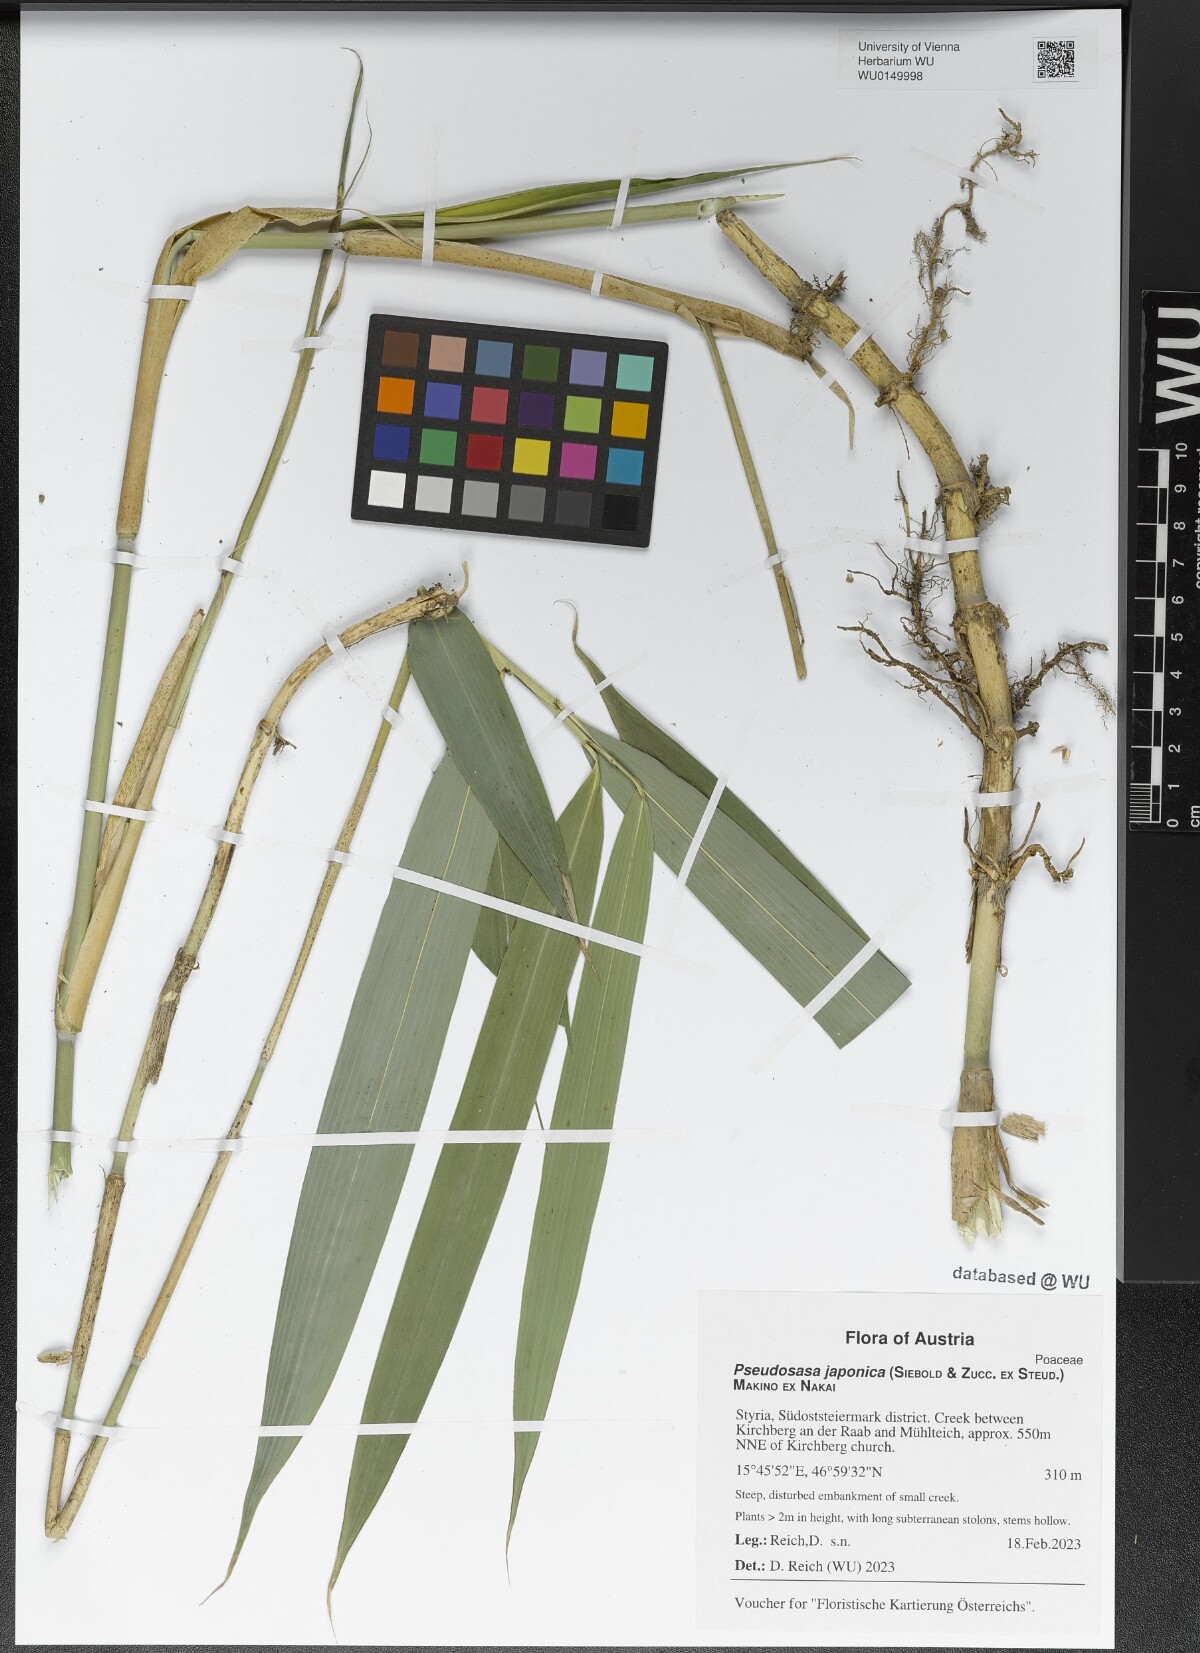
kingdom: Plantae
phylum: Tracheophyta
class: Liliopsida
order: Poales
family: Poaceae
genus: Pseudosasa
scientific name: Pseudosasa japonica
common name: Arrow bamboo
